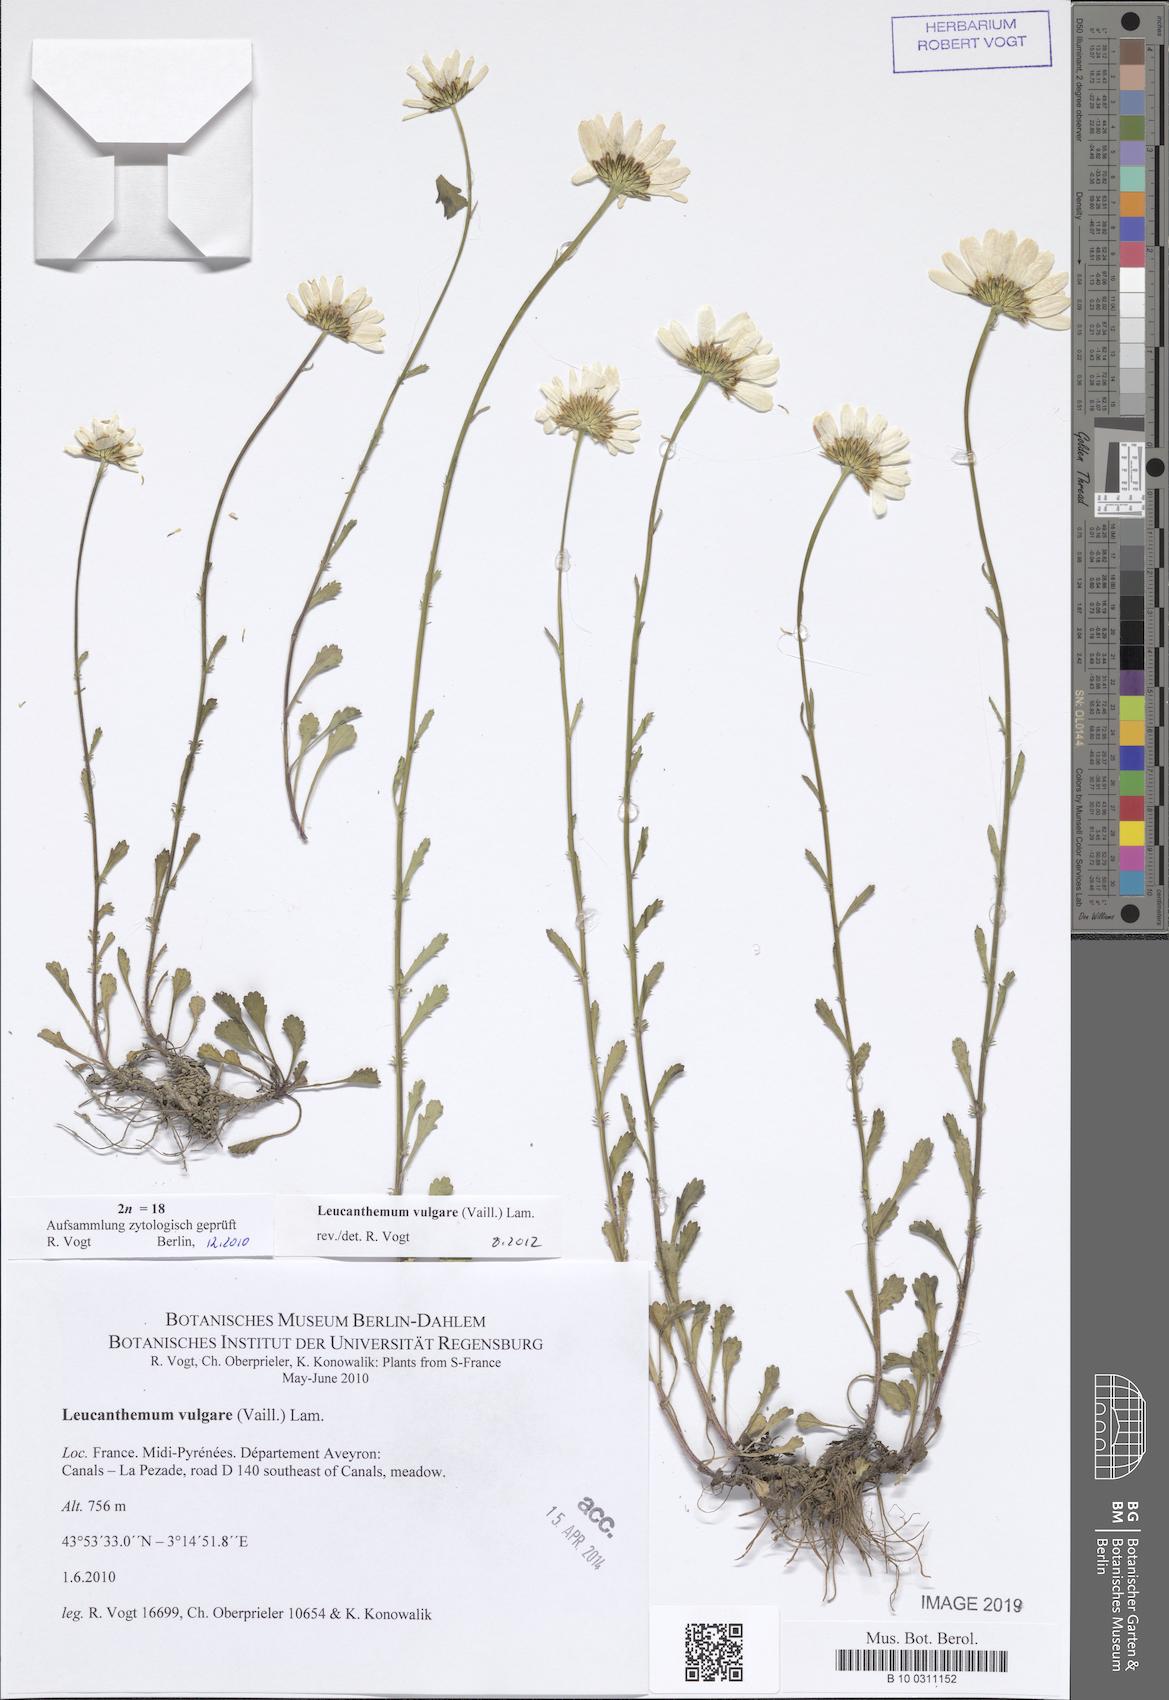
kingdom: Plantae
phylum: Tracheophyta
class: Magnoliopsida
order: Asterales
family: Asteraceae
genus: Leucanthemum
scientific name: Leucanthemum vulgare
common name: Oxeye daisy
